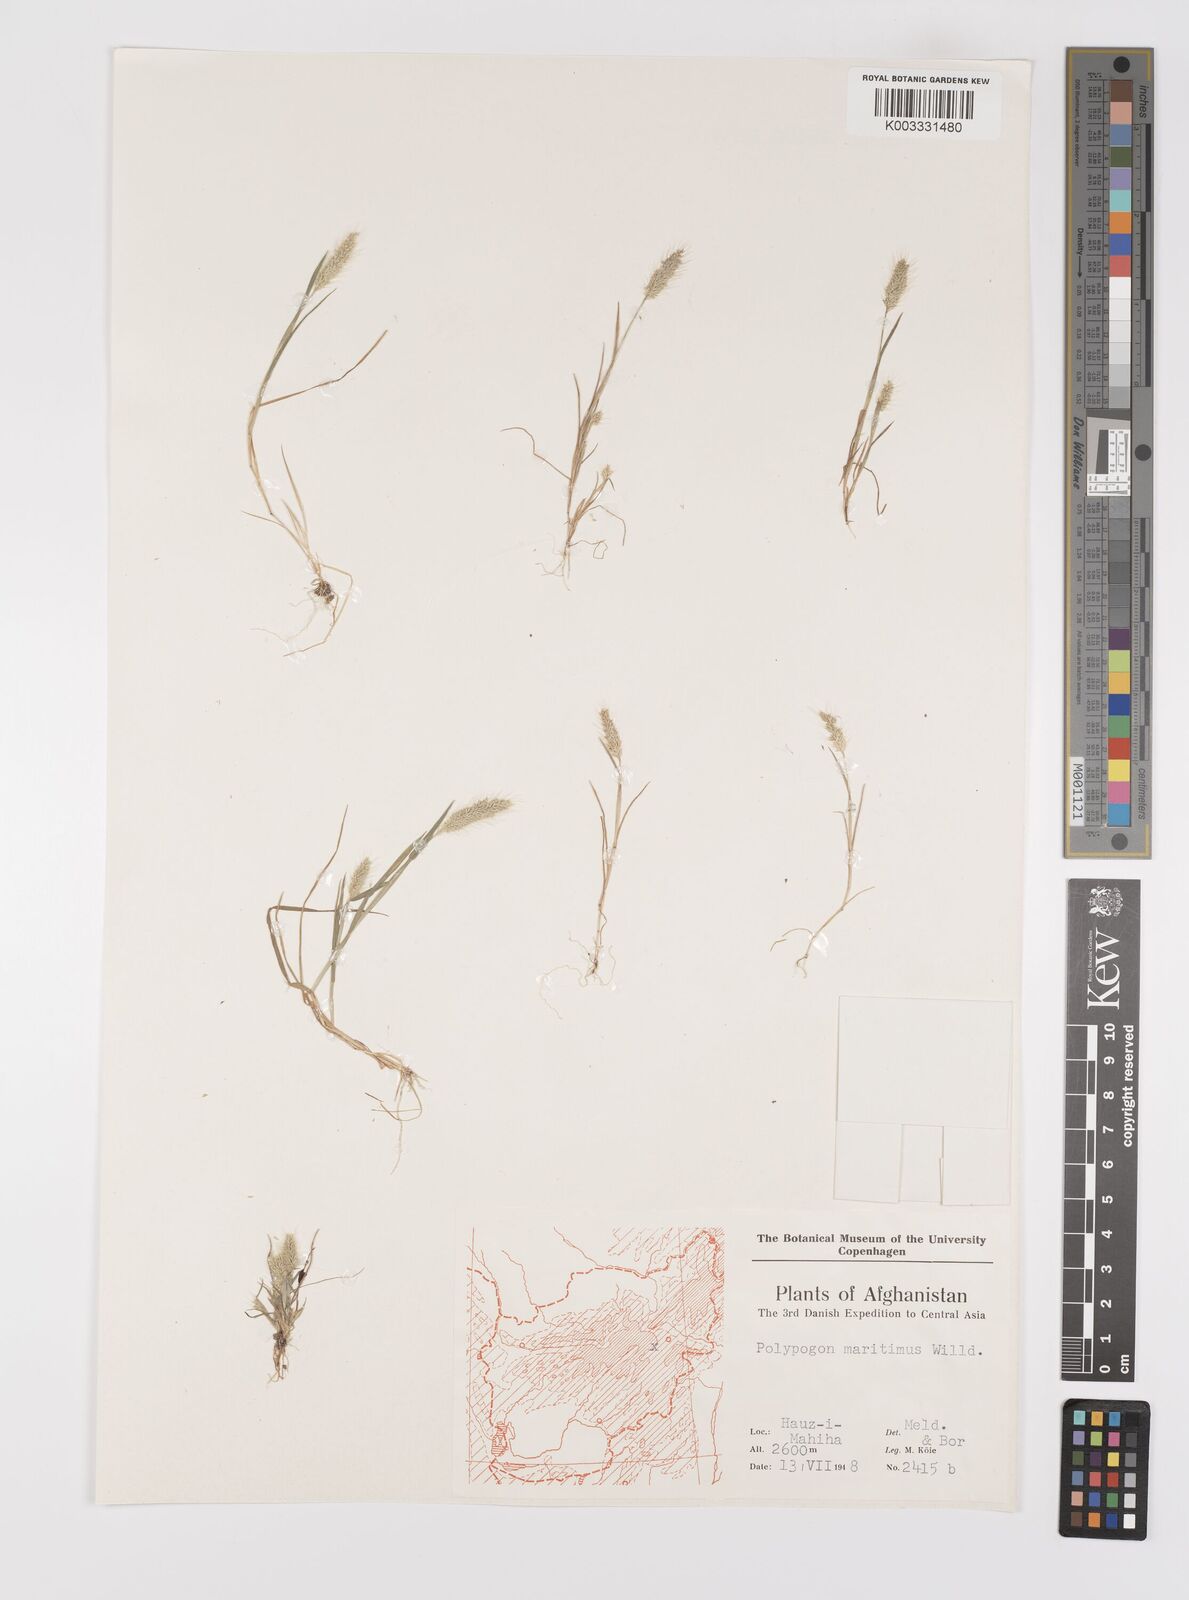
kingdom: Plantae
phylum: Tracheophyta
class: Liliopsida
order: Poales
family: Poaceae
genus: Polypogon
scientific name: Polypogon maritimus
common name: Mediterranean rabbitsfoot grass
